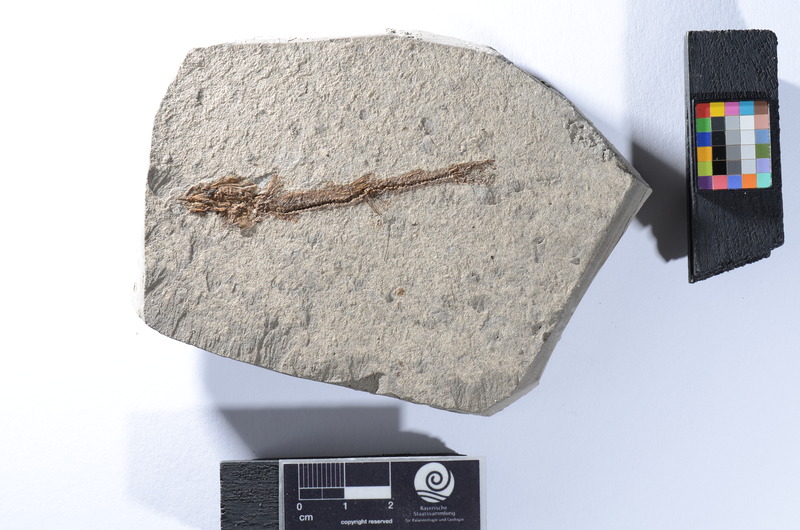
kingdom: Animalia
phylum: Chordata
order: Gonorynchiformes
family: Gonorynchidae
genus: Notogoneus
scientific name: Notogoneus longiceps
